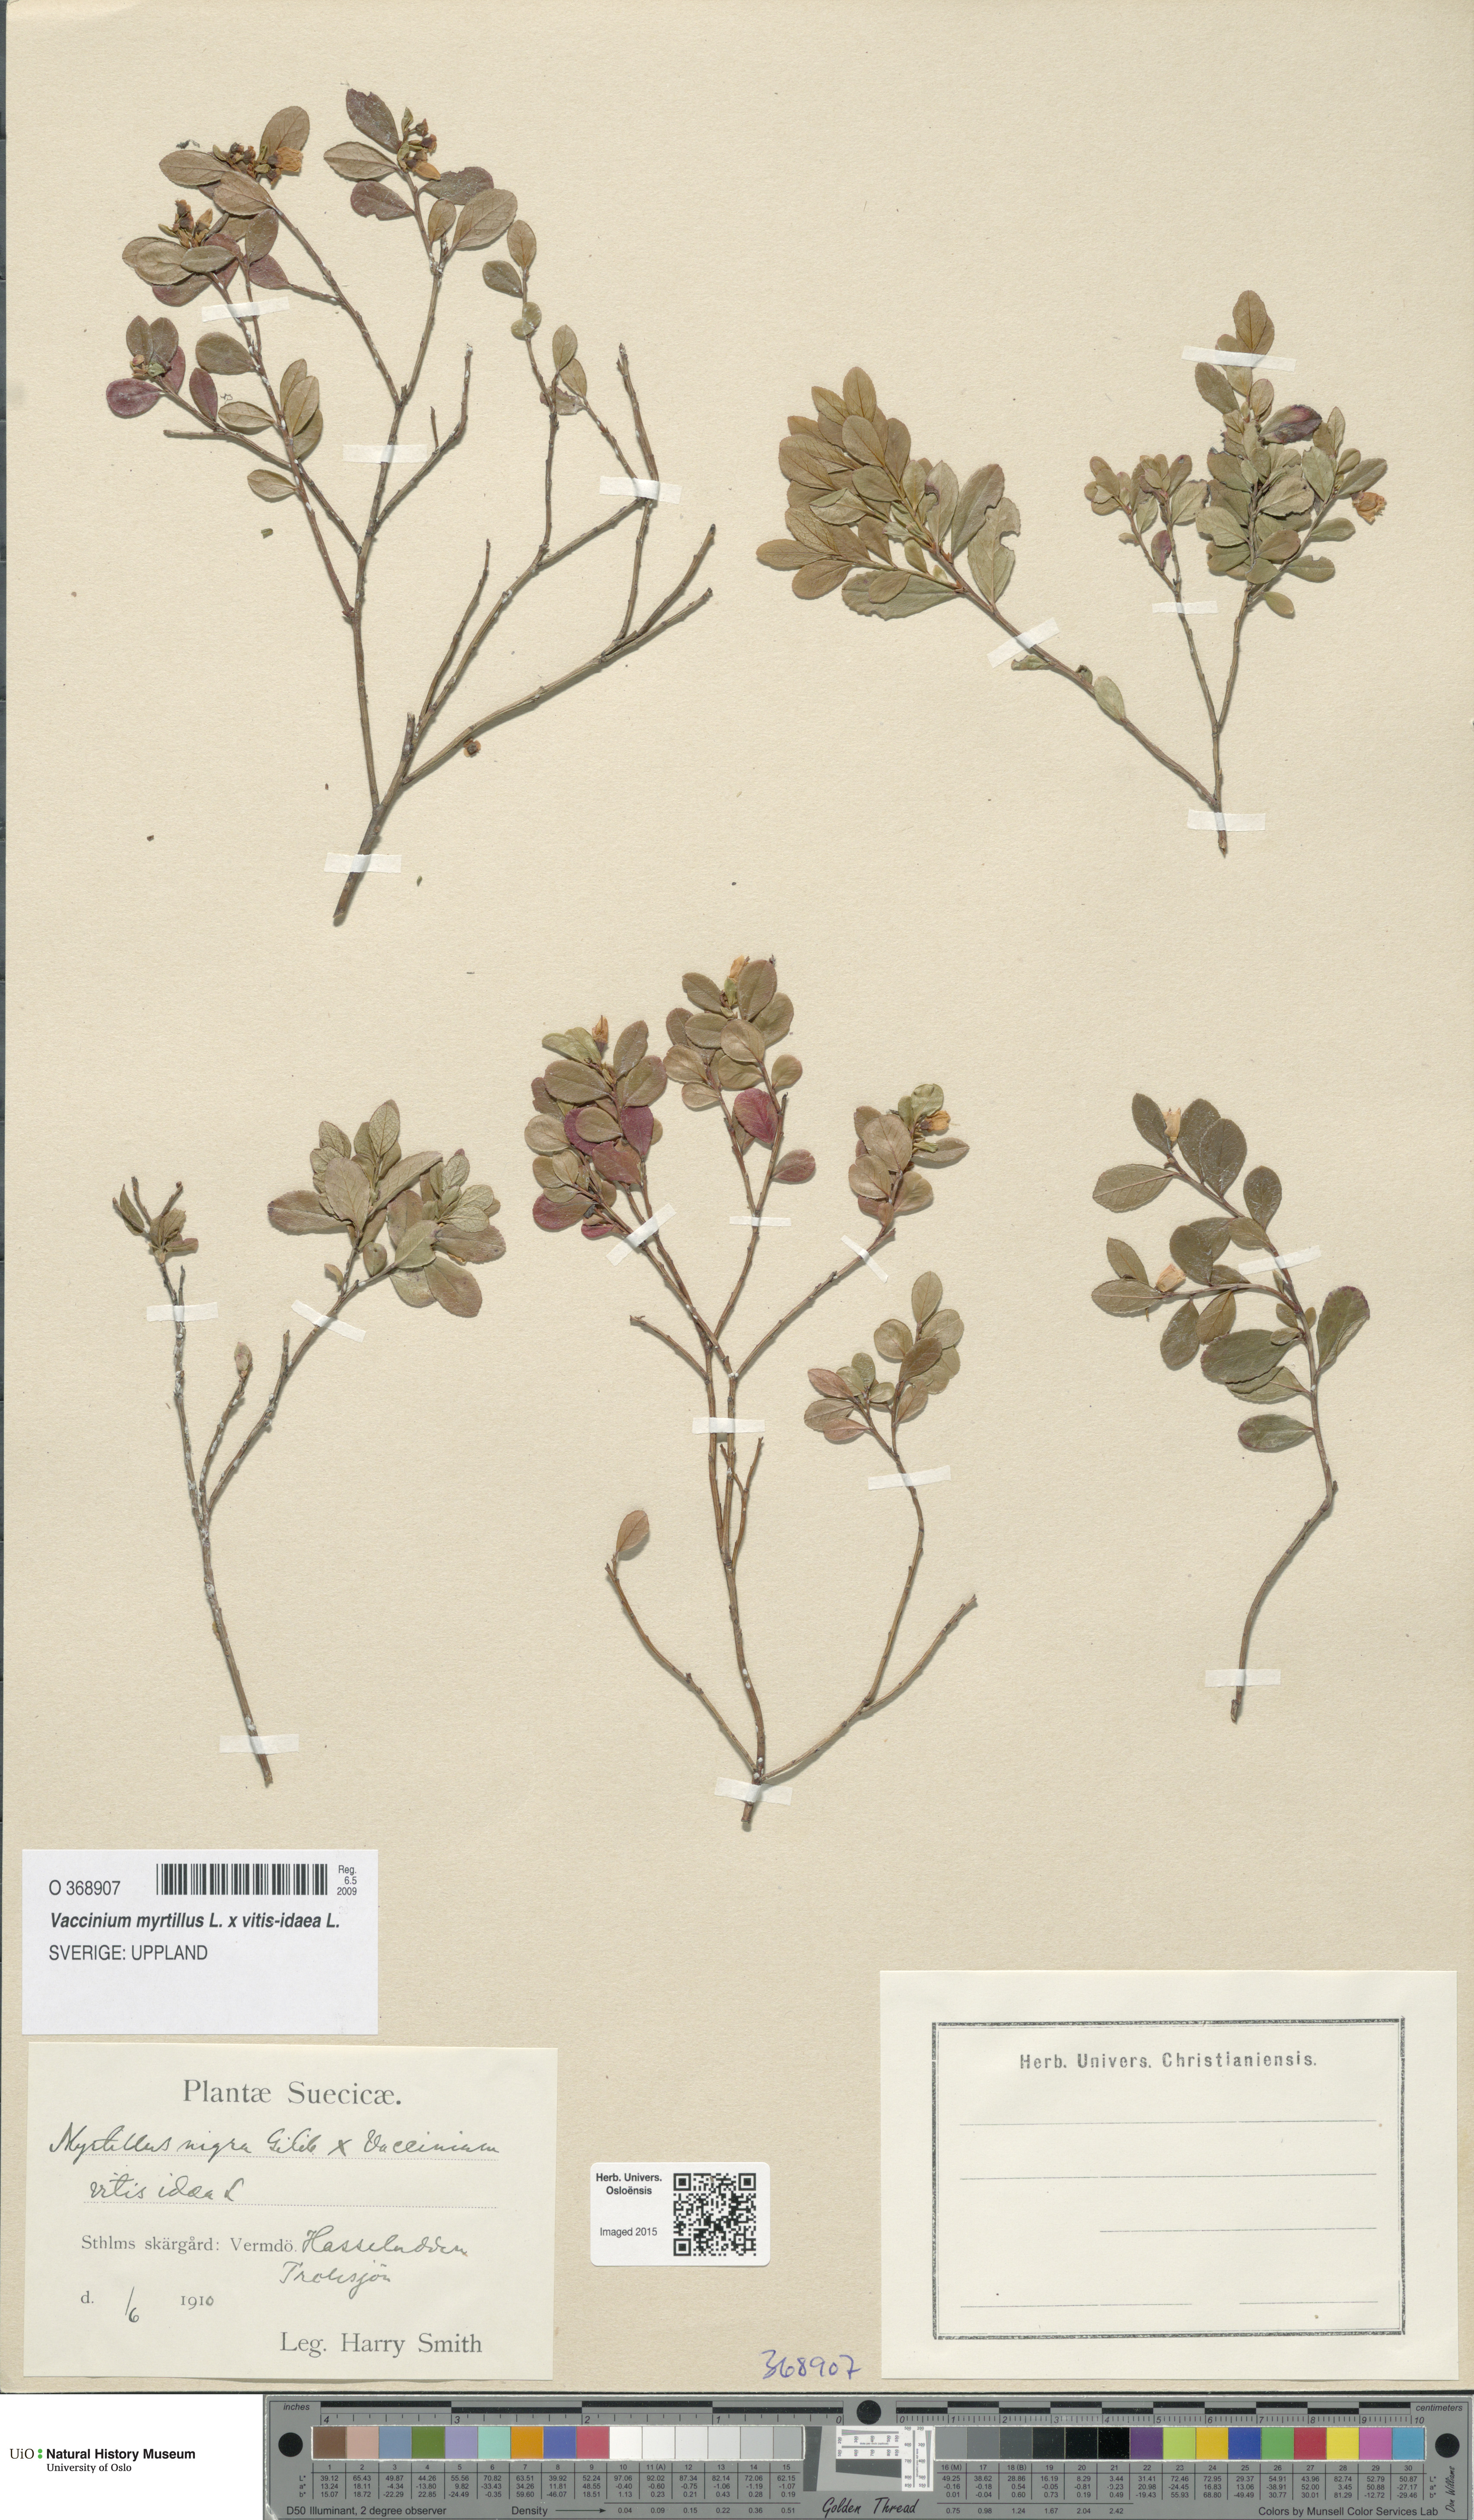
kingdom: Plantae
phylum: Tracheophyta
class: Magnoliopsida
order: Ericales
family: Ericaceae
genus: Vaccinium
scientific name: Vaccinium
